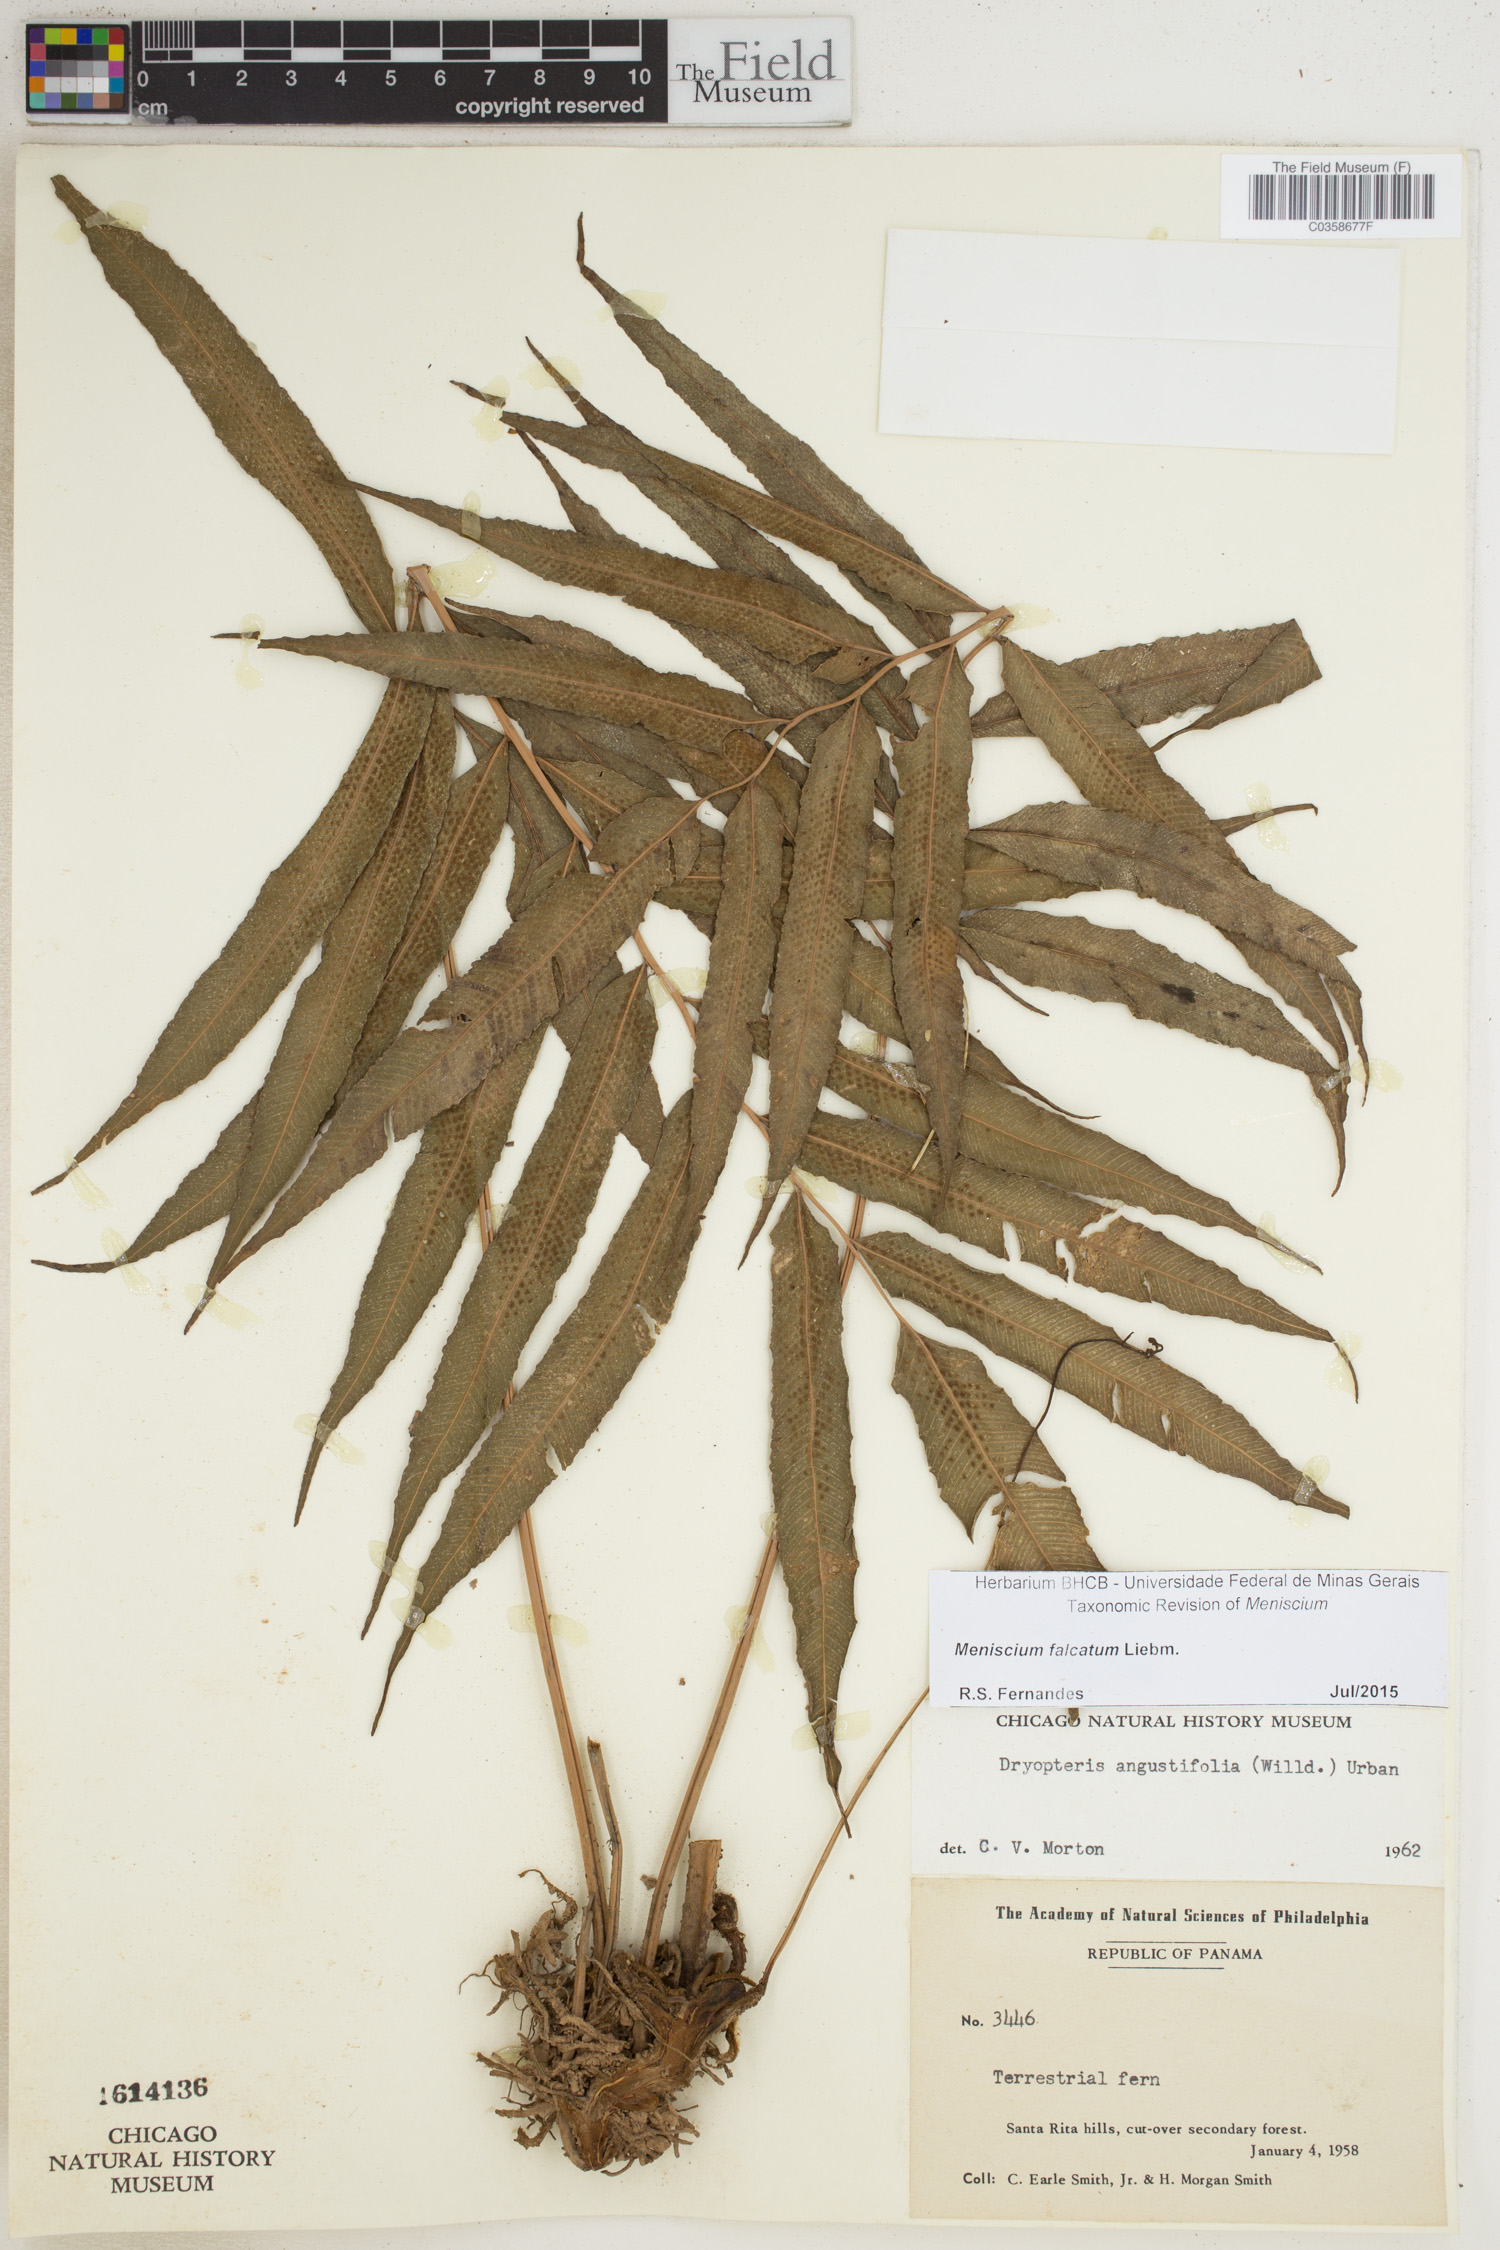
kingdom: Plantae
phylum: Tracheophyta
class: Polypodiopsida
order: Polypodiales
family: Thelypteridaceae
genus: Meniscium
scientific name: Meniscium falcatum
